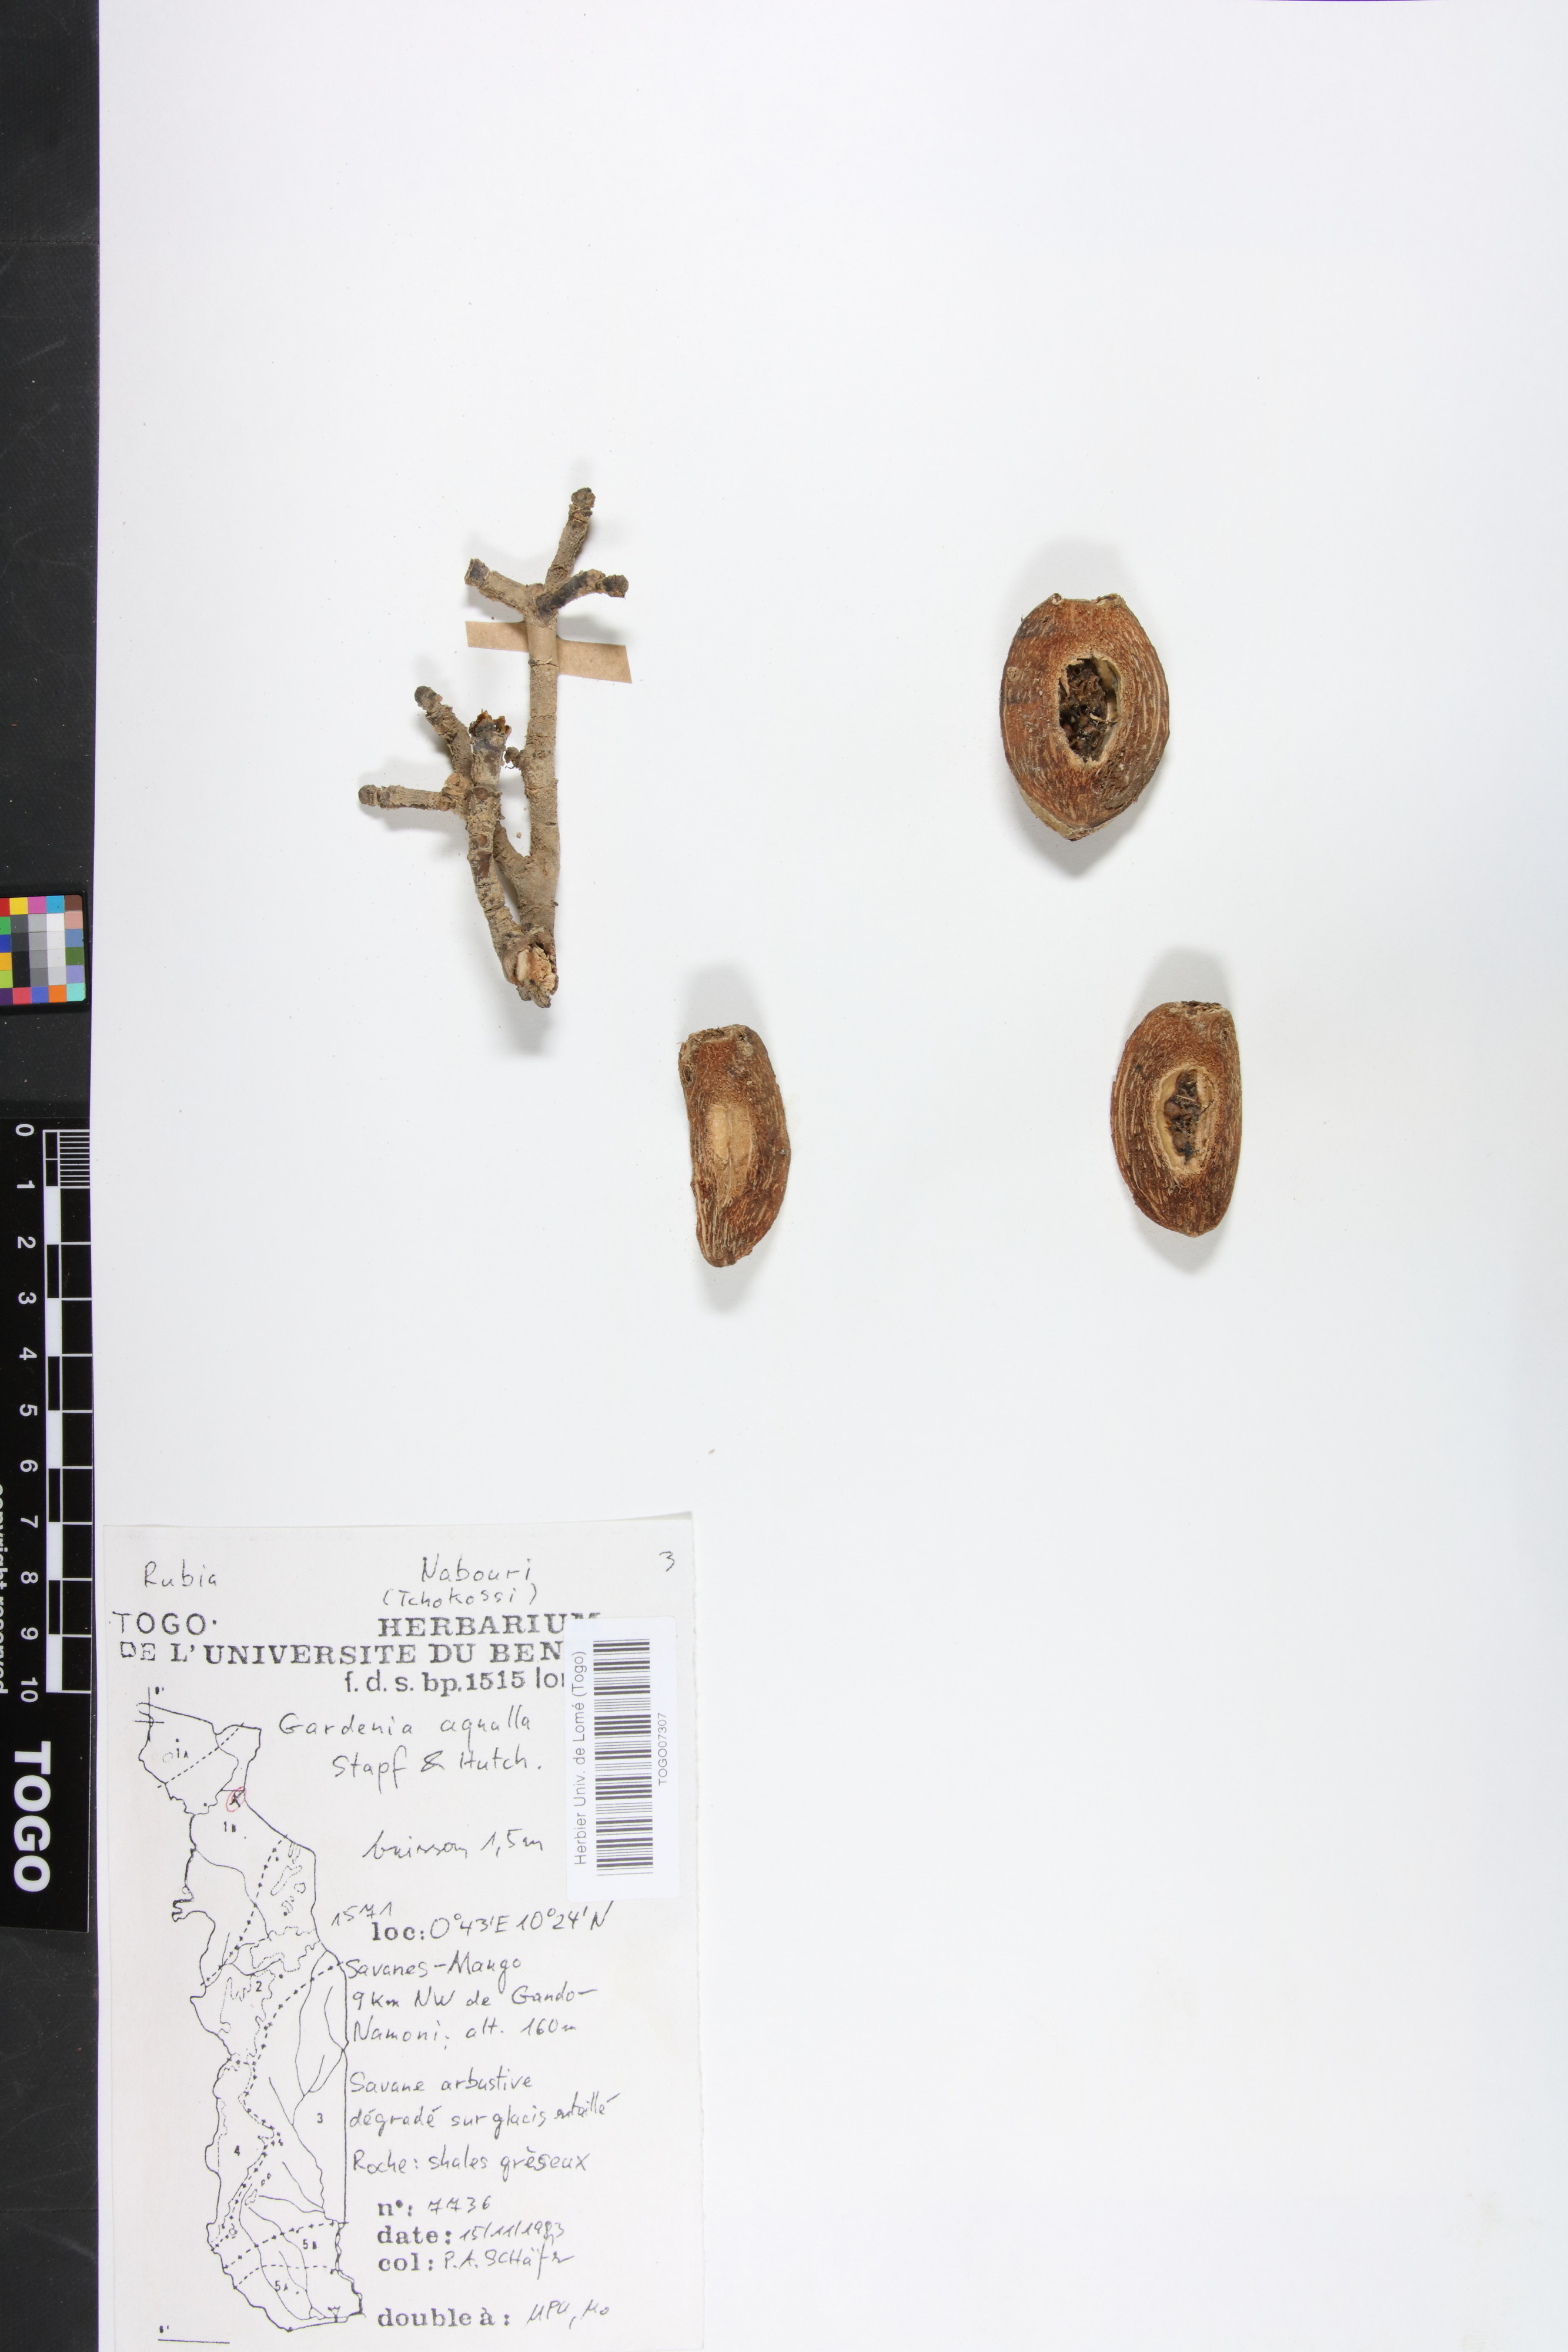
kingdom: Plantae
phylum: Tracheophyta
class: Magnoliopsida
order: Gentianales
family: Rubiaceae
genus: Gardenia
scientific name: Gardenia aqualla
